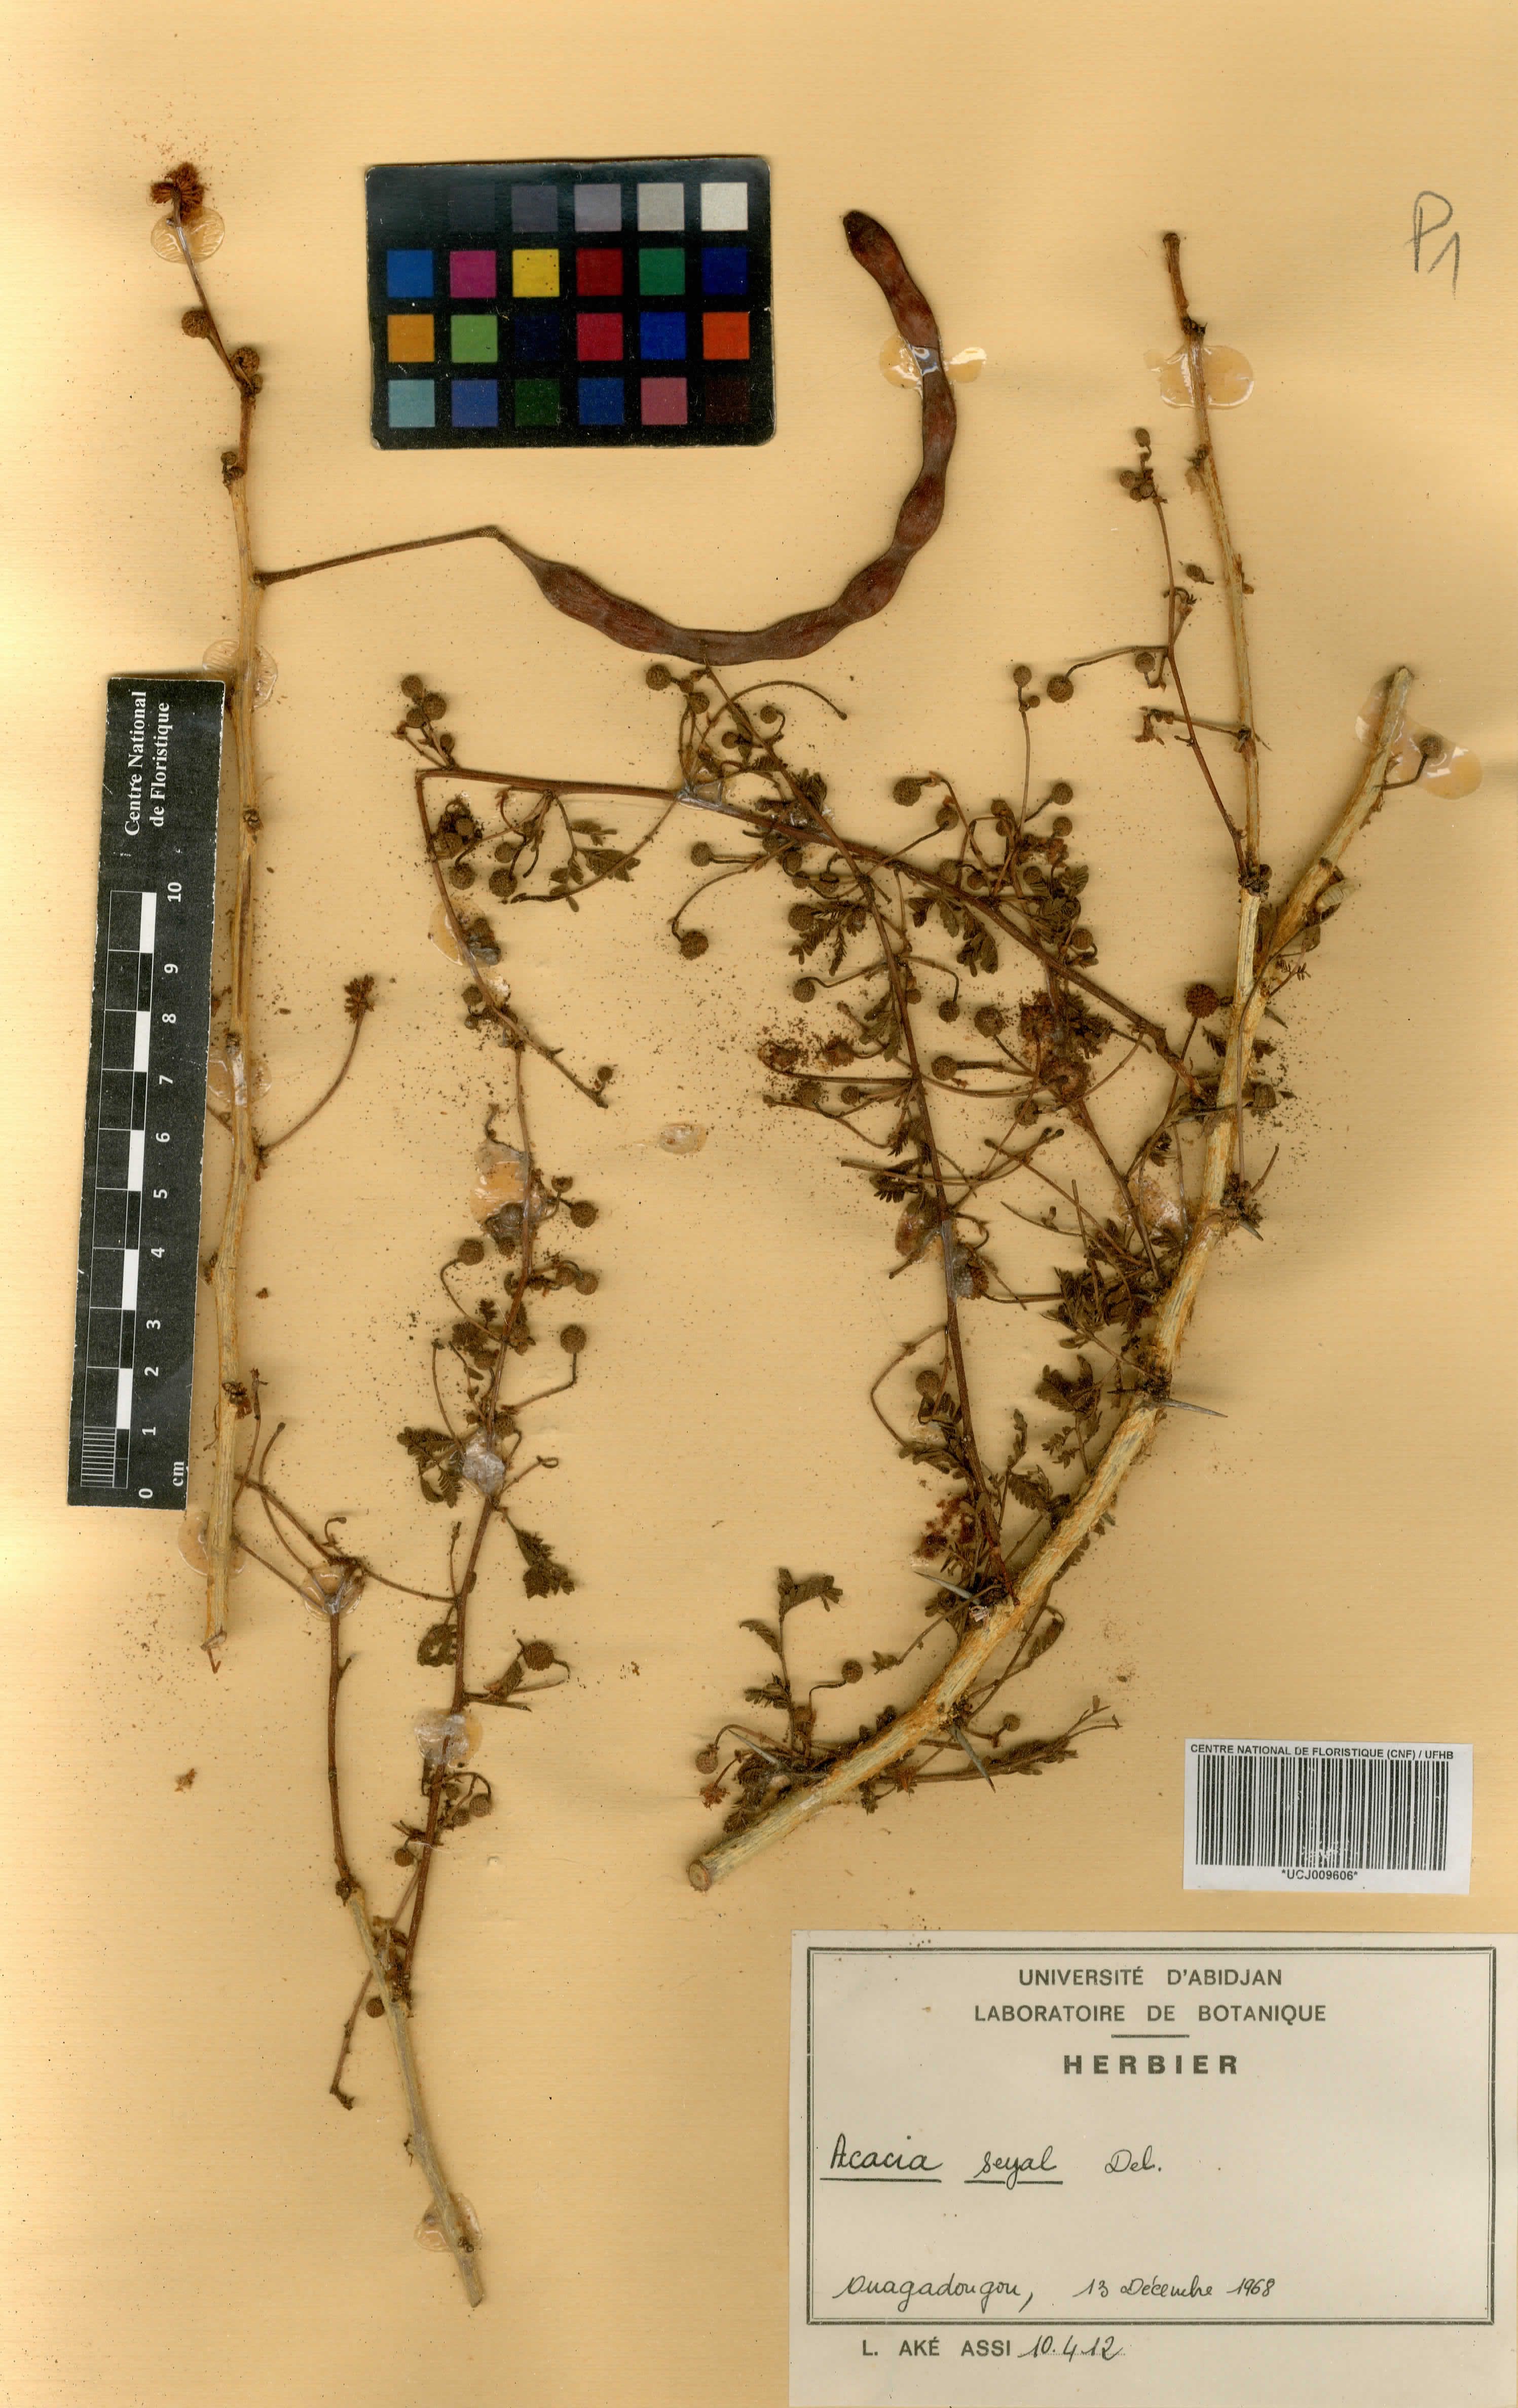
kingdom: Plantae
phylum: Tracheophyta
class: Magnoliopsida
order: Fabales
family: Fabaceae
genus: Acacia
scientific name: Acacia
